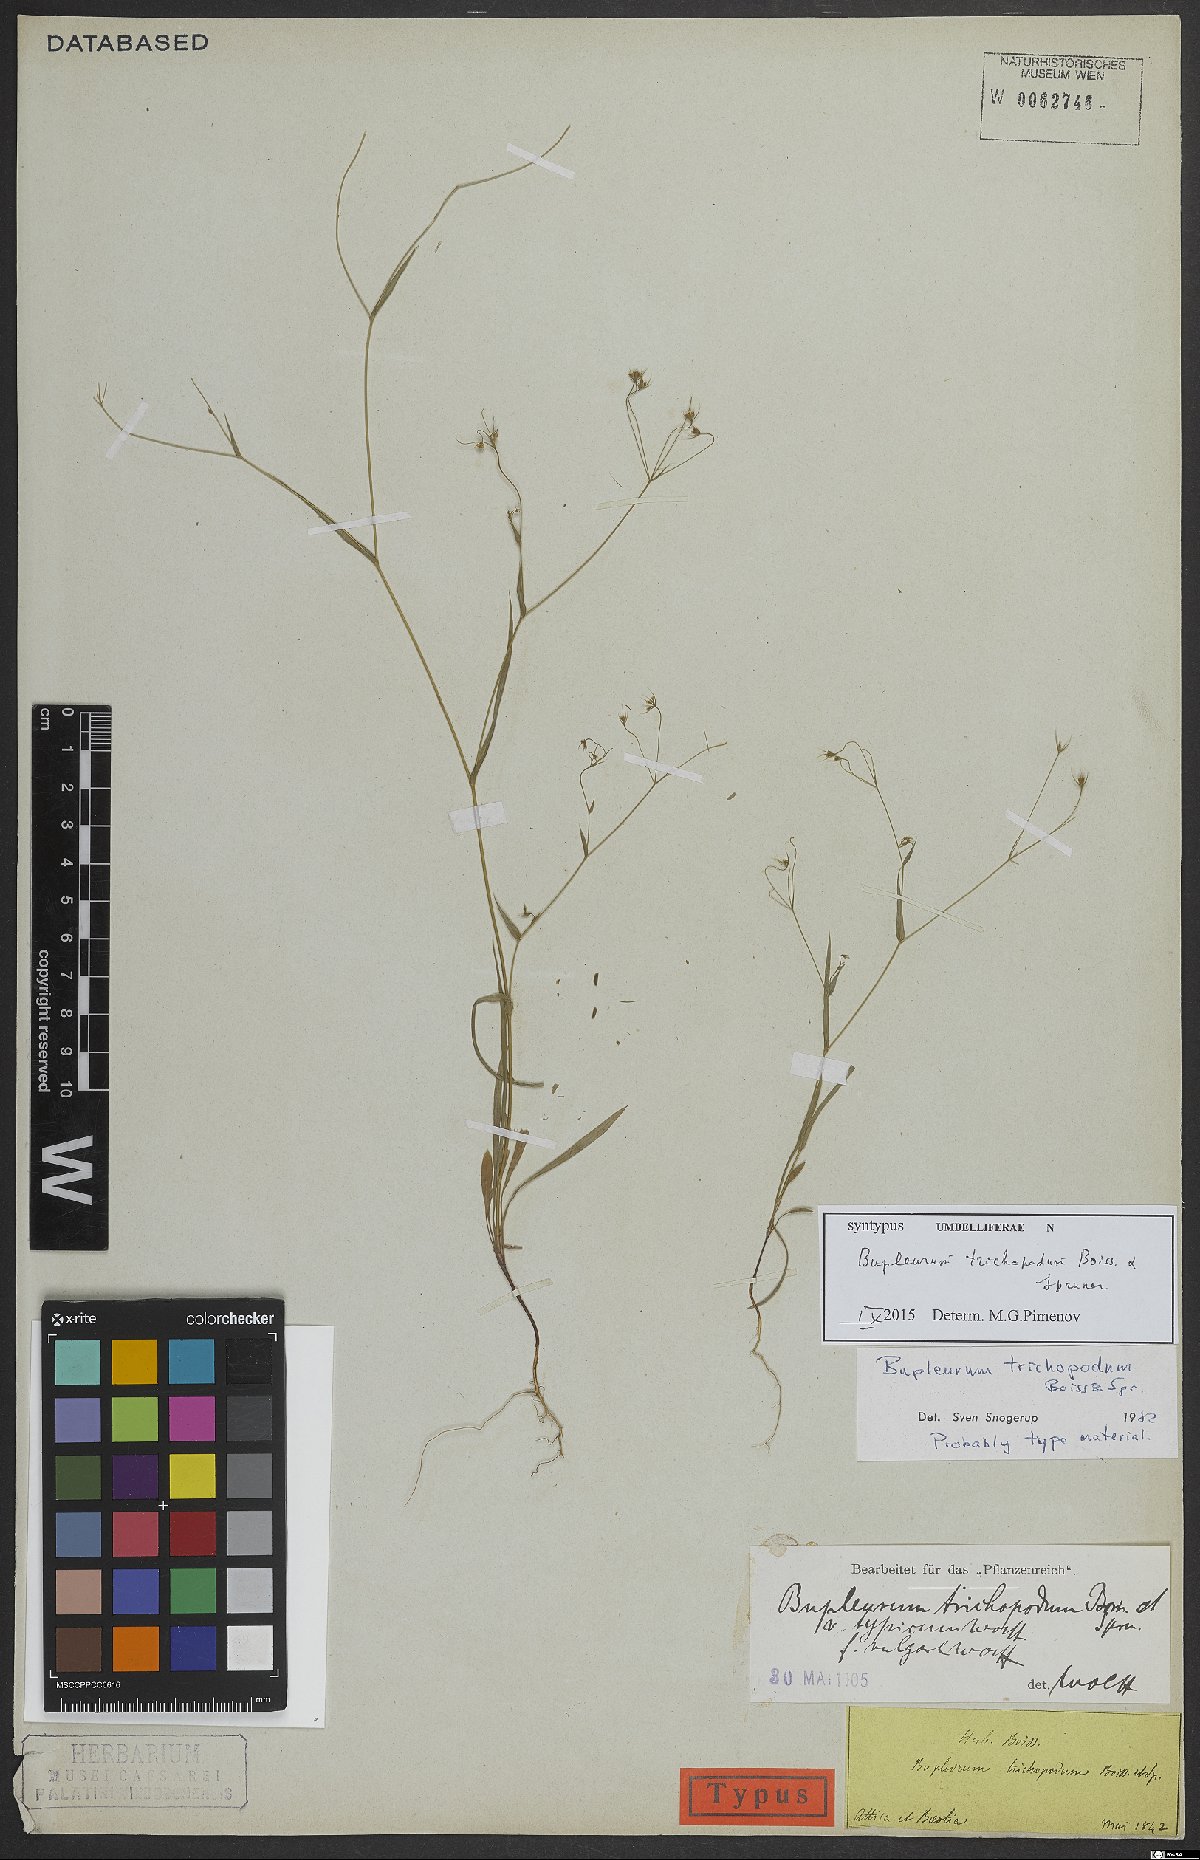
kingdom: Plantae
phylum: Tracheophyta
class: Magnoliopsida
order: Apiales
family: Apiaceae
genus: Bupleurum
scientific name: Bupleurum trichopodum
